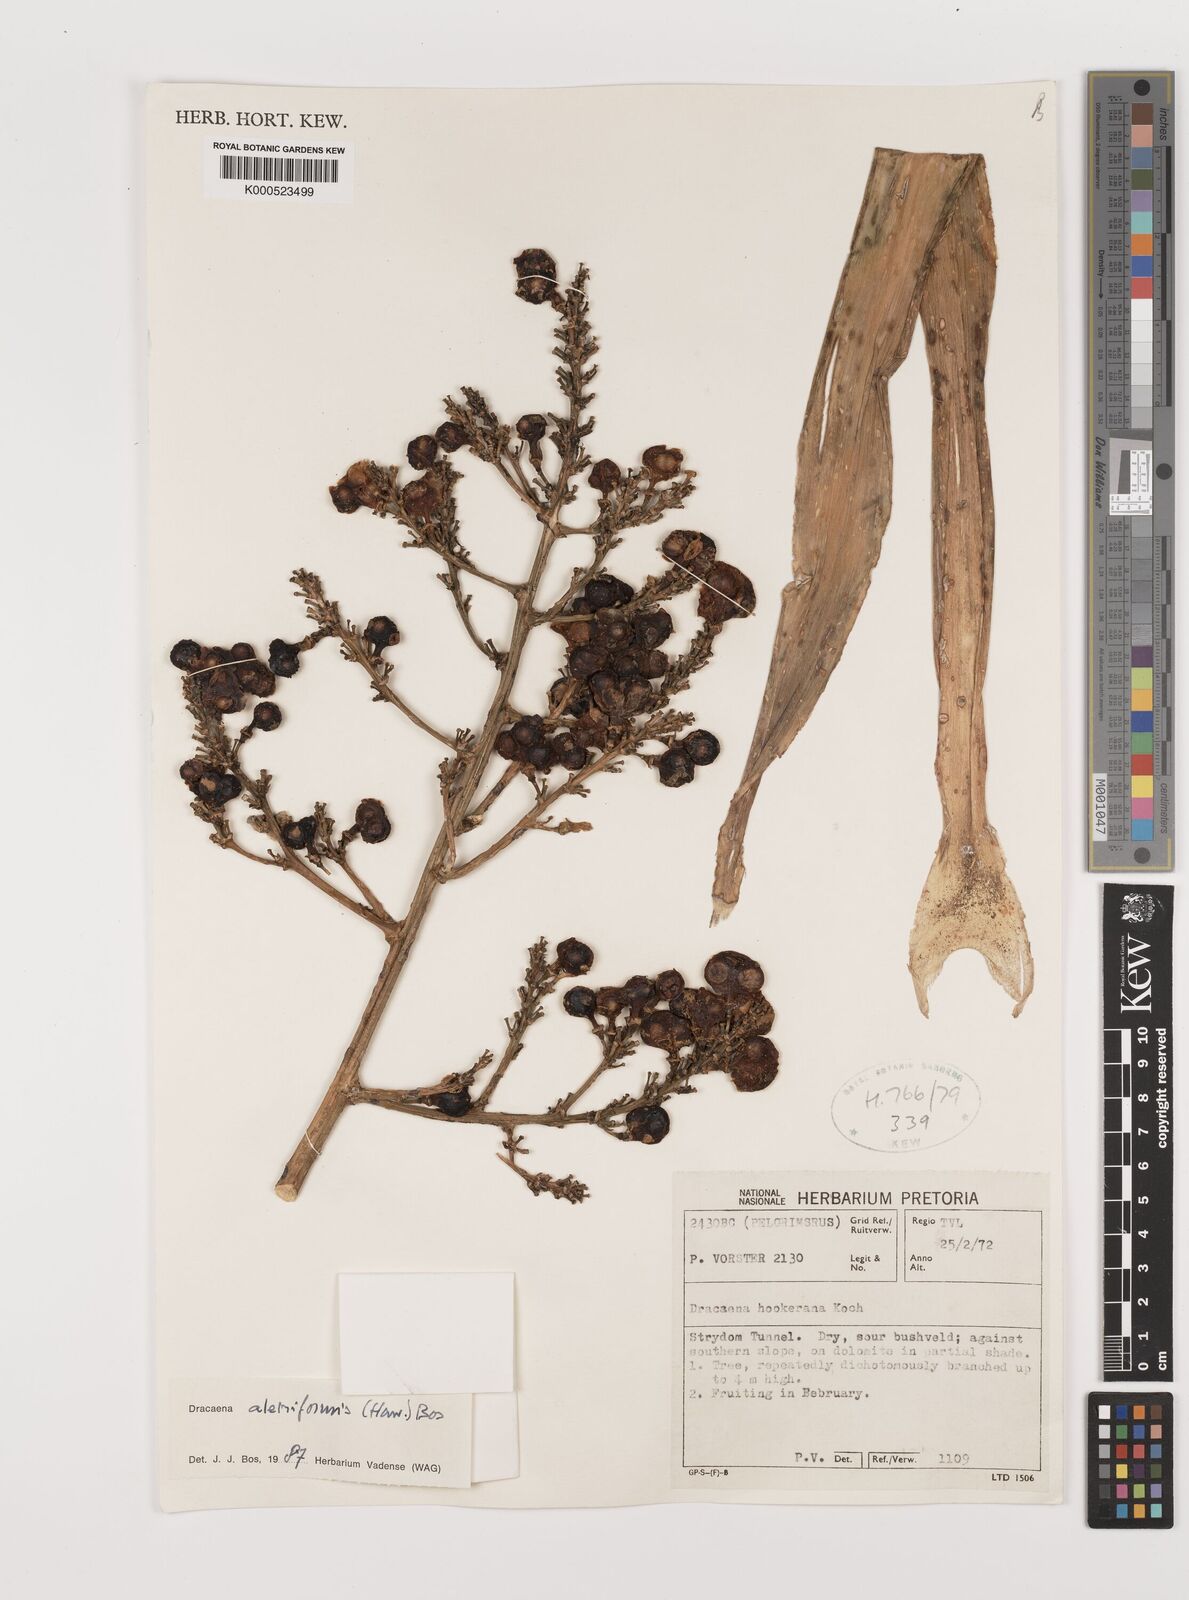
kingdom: Plantae
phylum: Tracheophyta
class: Liliopsida
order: Asparagales
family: Asparagaceae
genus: Dracaena
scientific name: Dracaena aletriformis
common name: Large-leaved dragon tree
